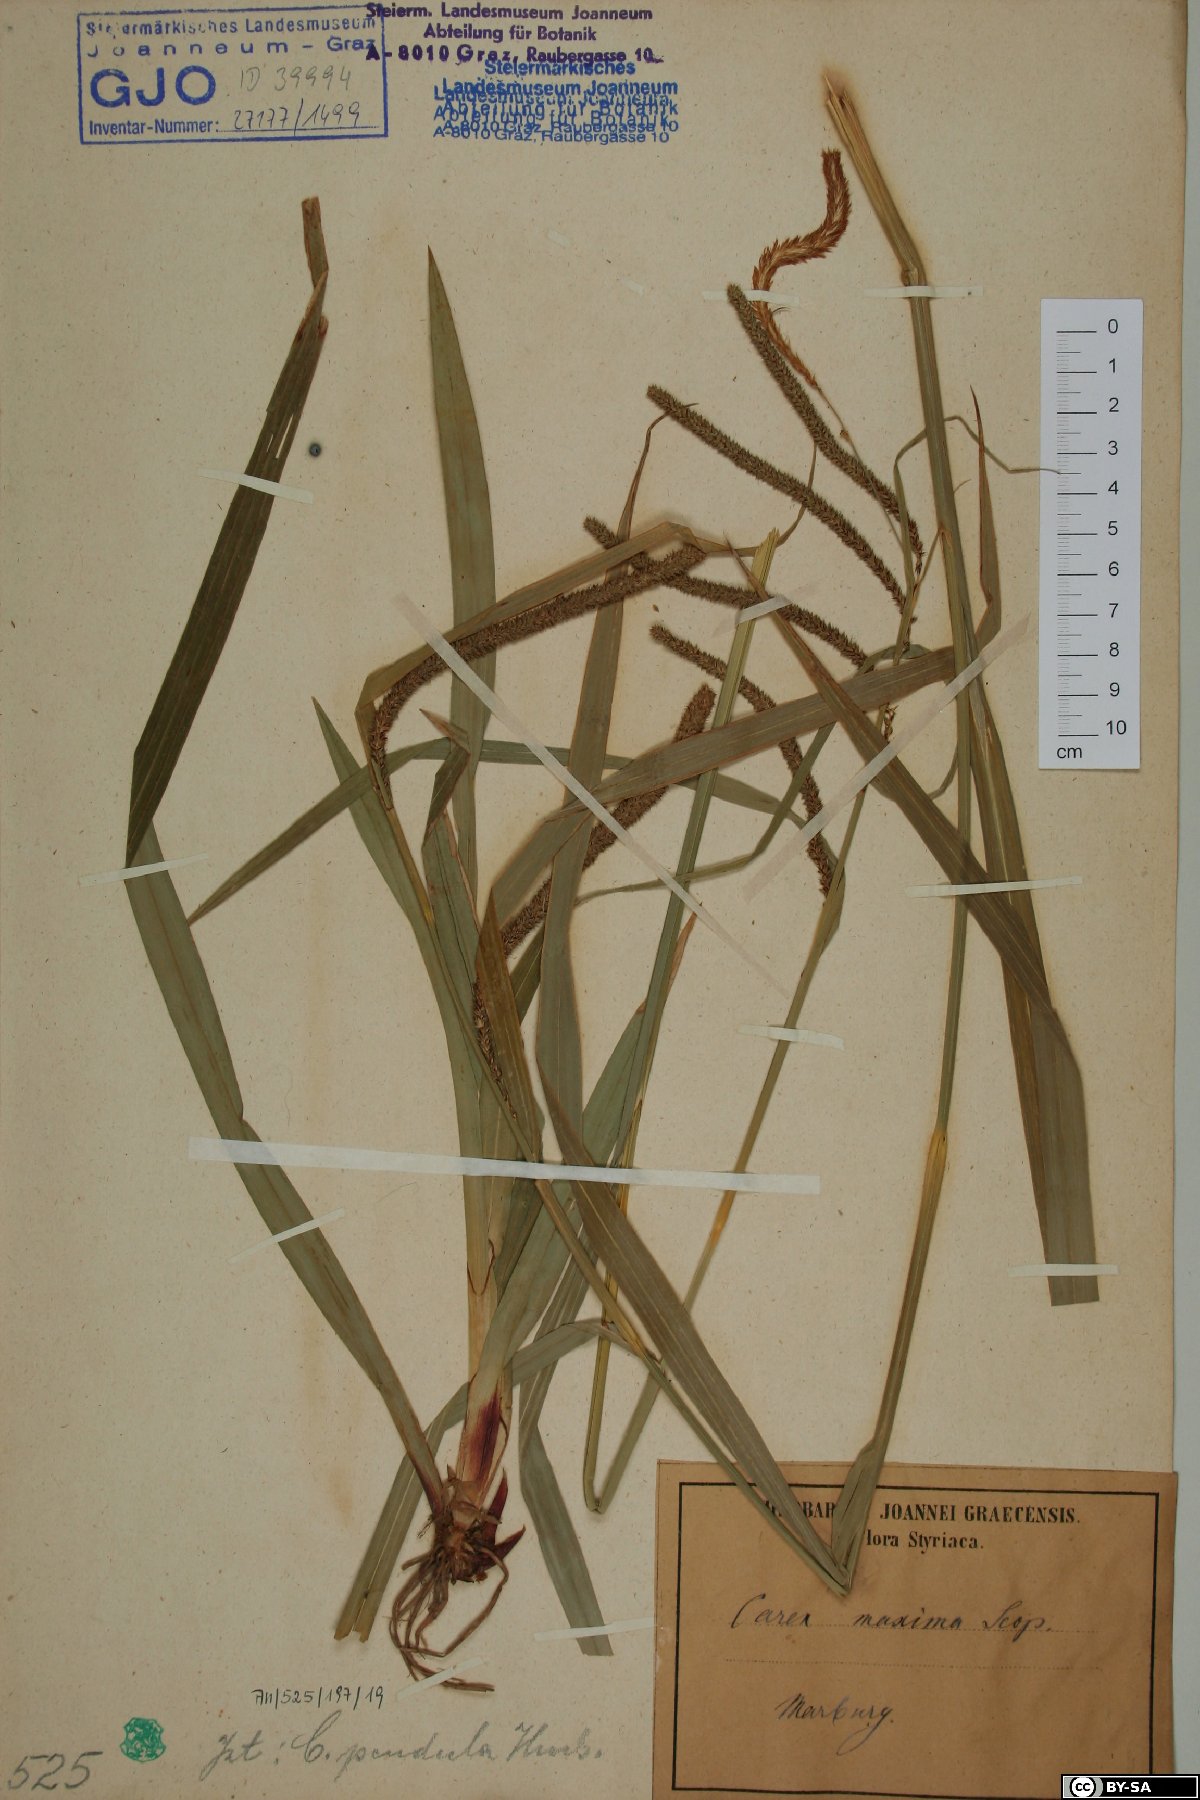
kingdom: Plantae
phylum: Tracheophyta
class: Liliopsida
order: Poales
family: Cyperaceae
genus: Carex
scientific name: Carex pendula
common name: Pendulous sedge
